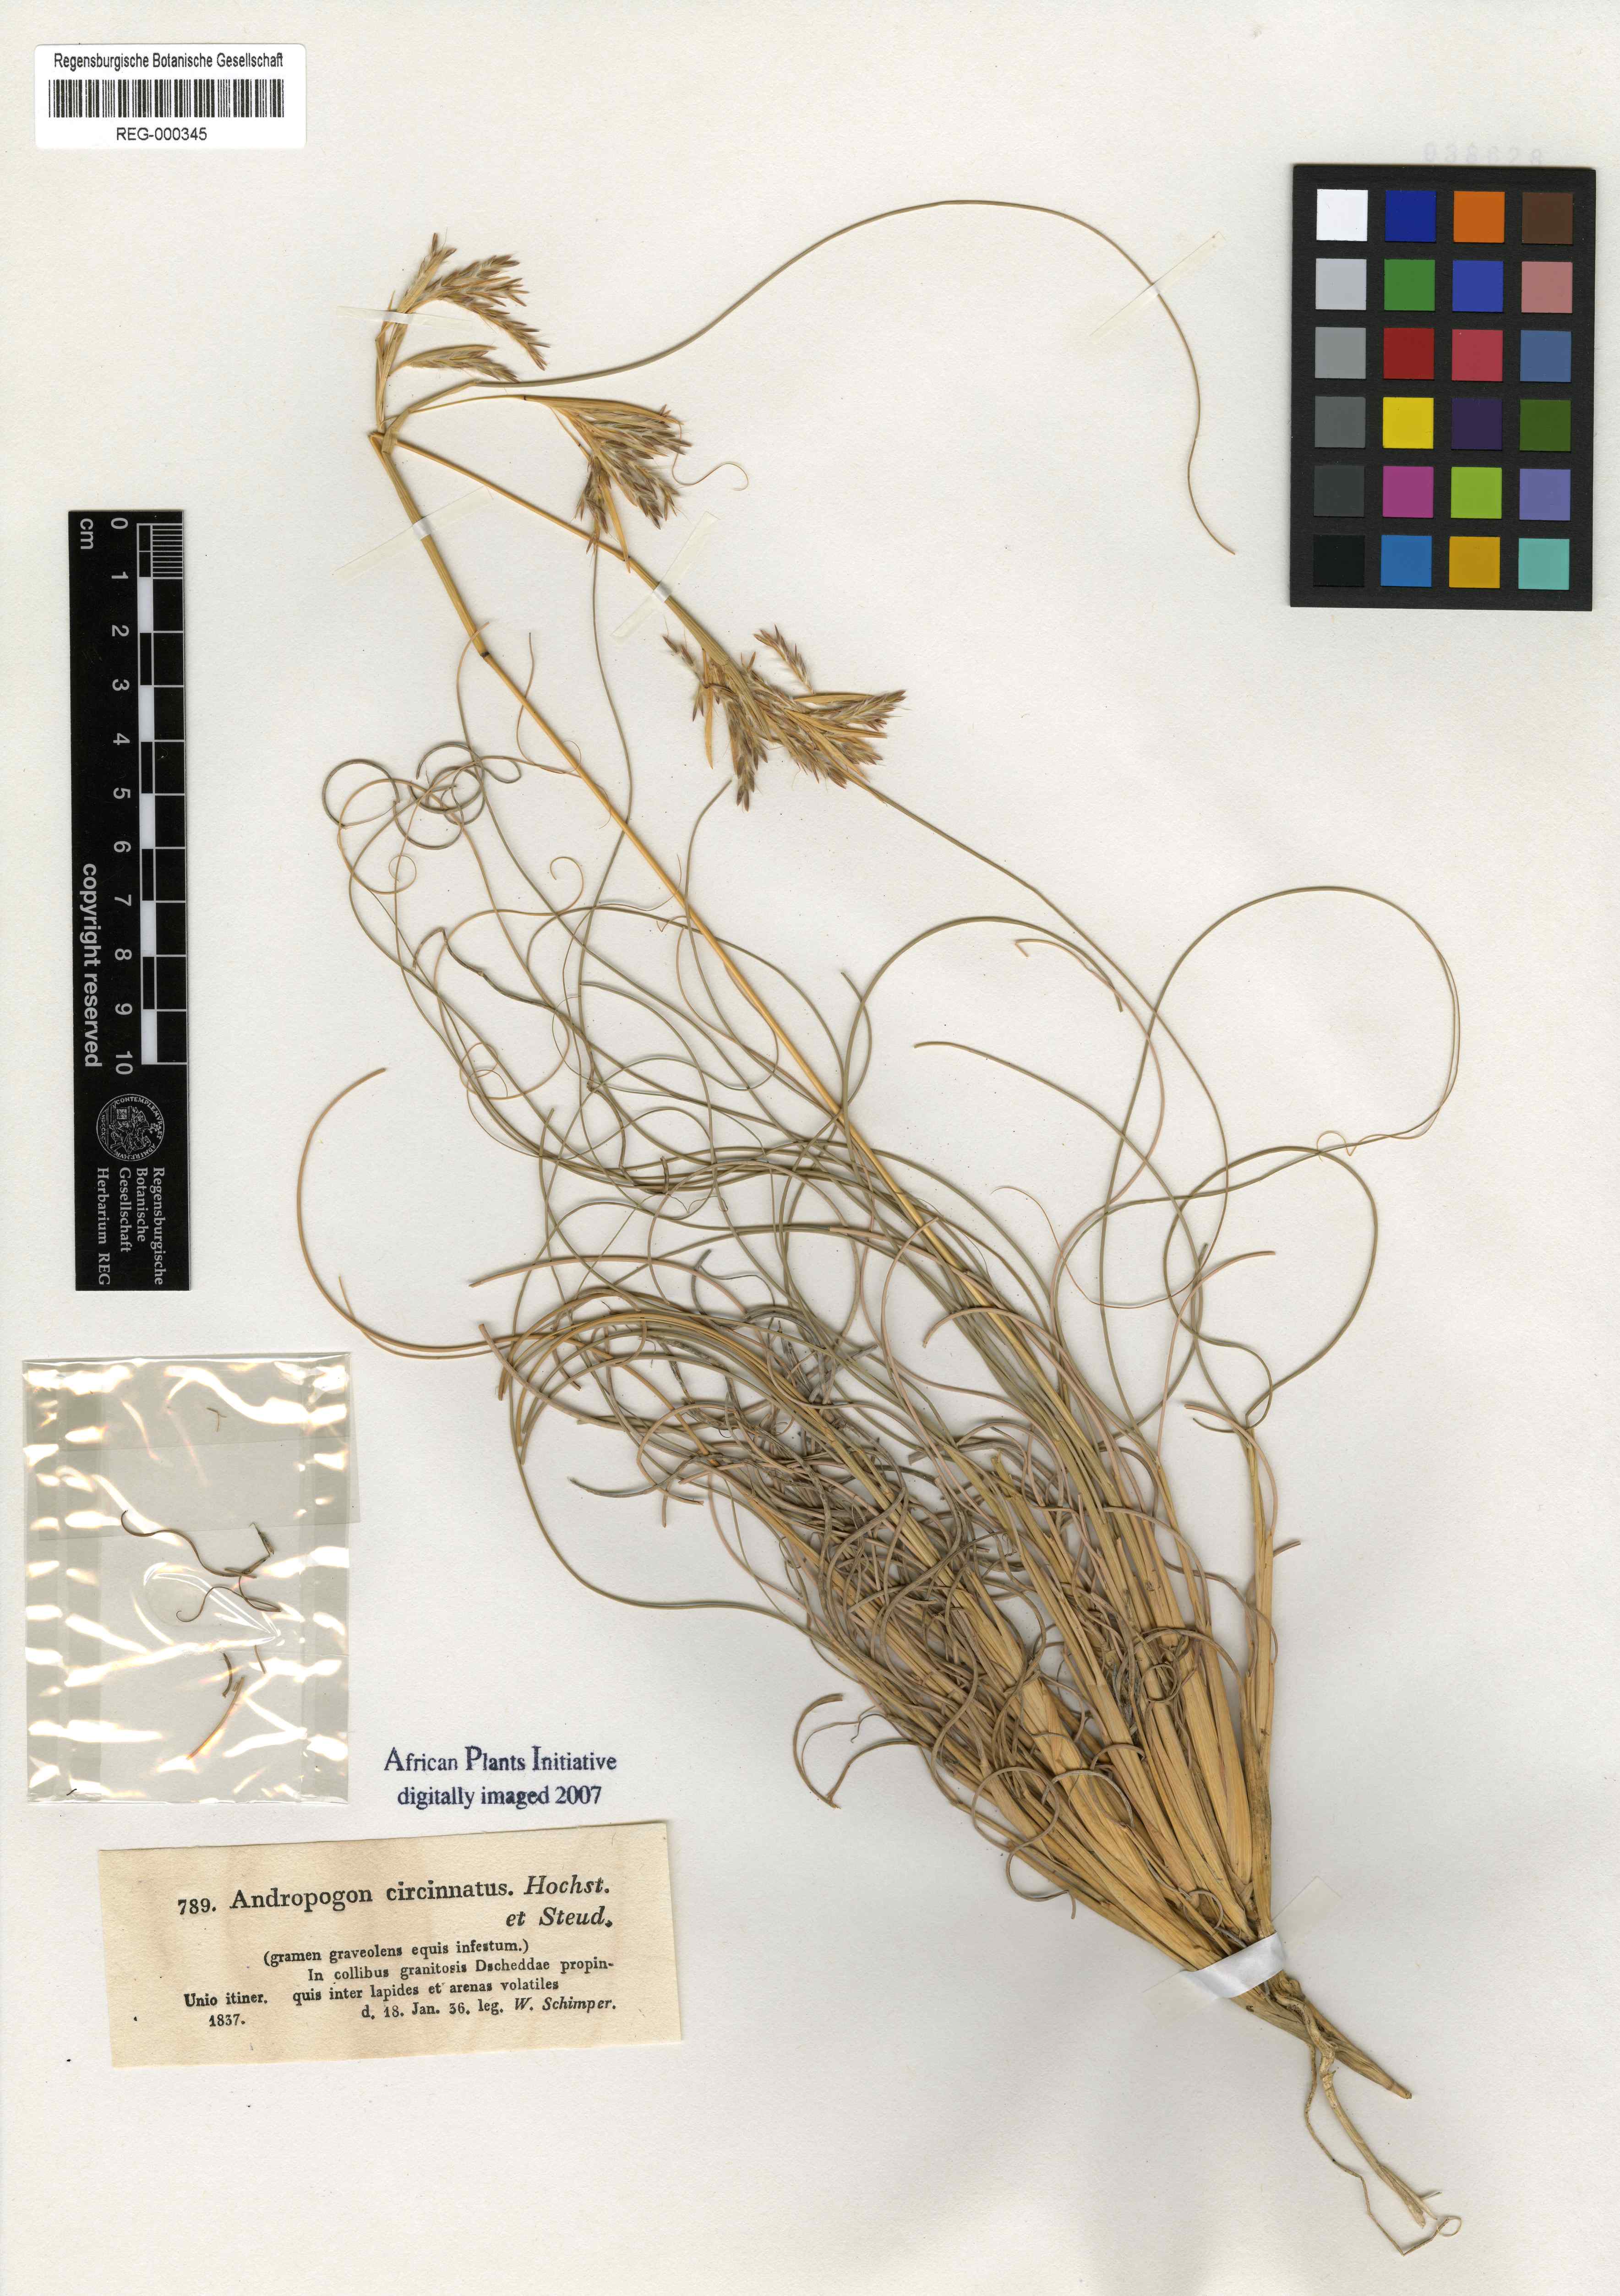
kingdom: Plantae
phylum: Tracheophyta
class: Liliopsida
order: Poales
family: Poaceae
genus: Cymbopogon
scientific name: Cymbopogon schoenanthus
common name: Geranium grass
